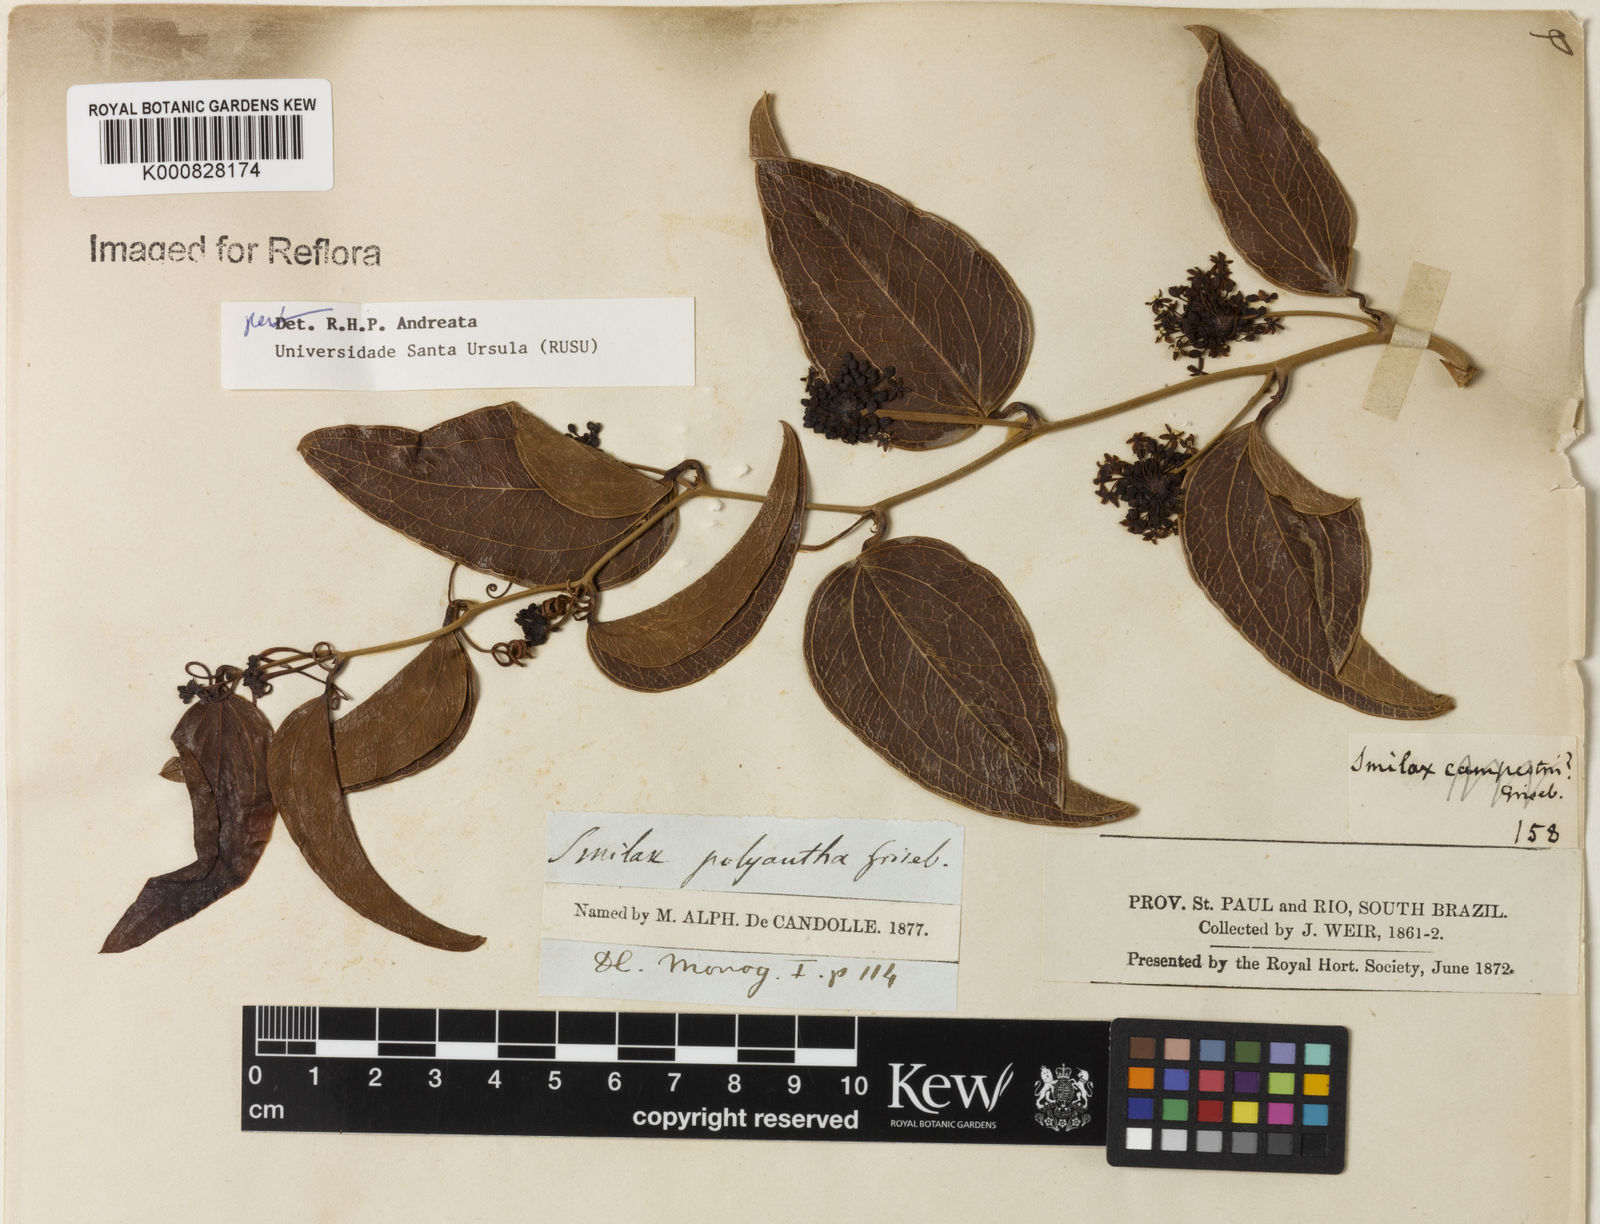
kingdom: Plantae
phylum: Tracheophyta
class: Liliopsida
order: Liliales
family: Smilacaceae
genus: Smilax
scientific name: Smilax polyantha
